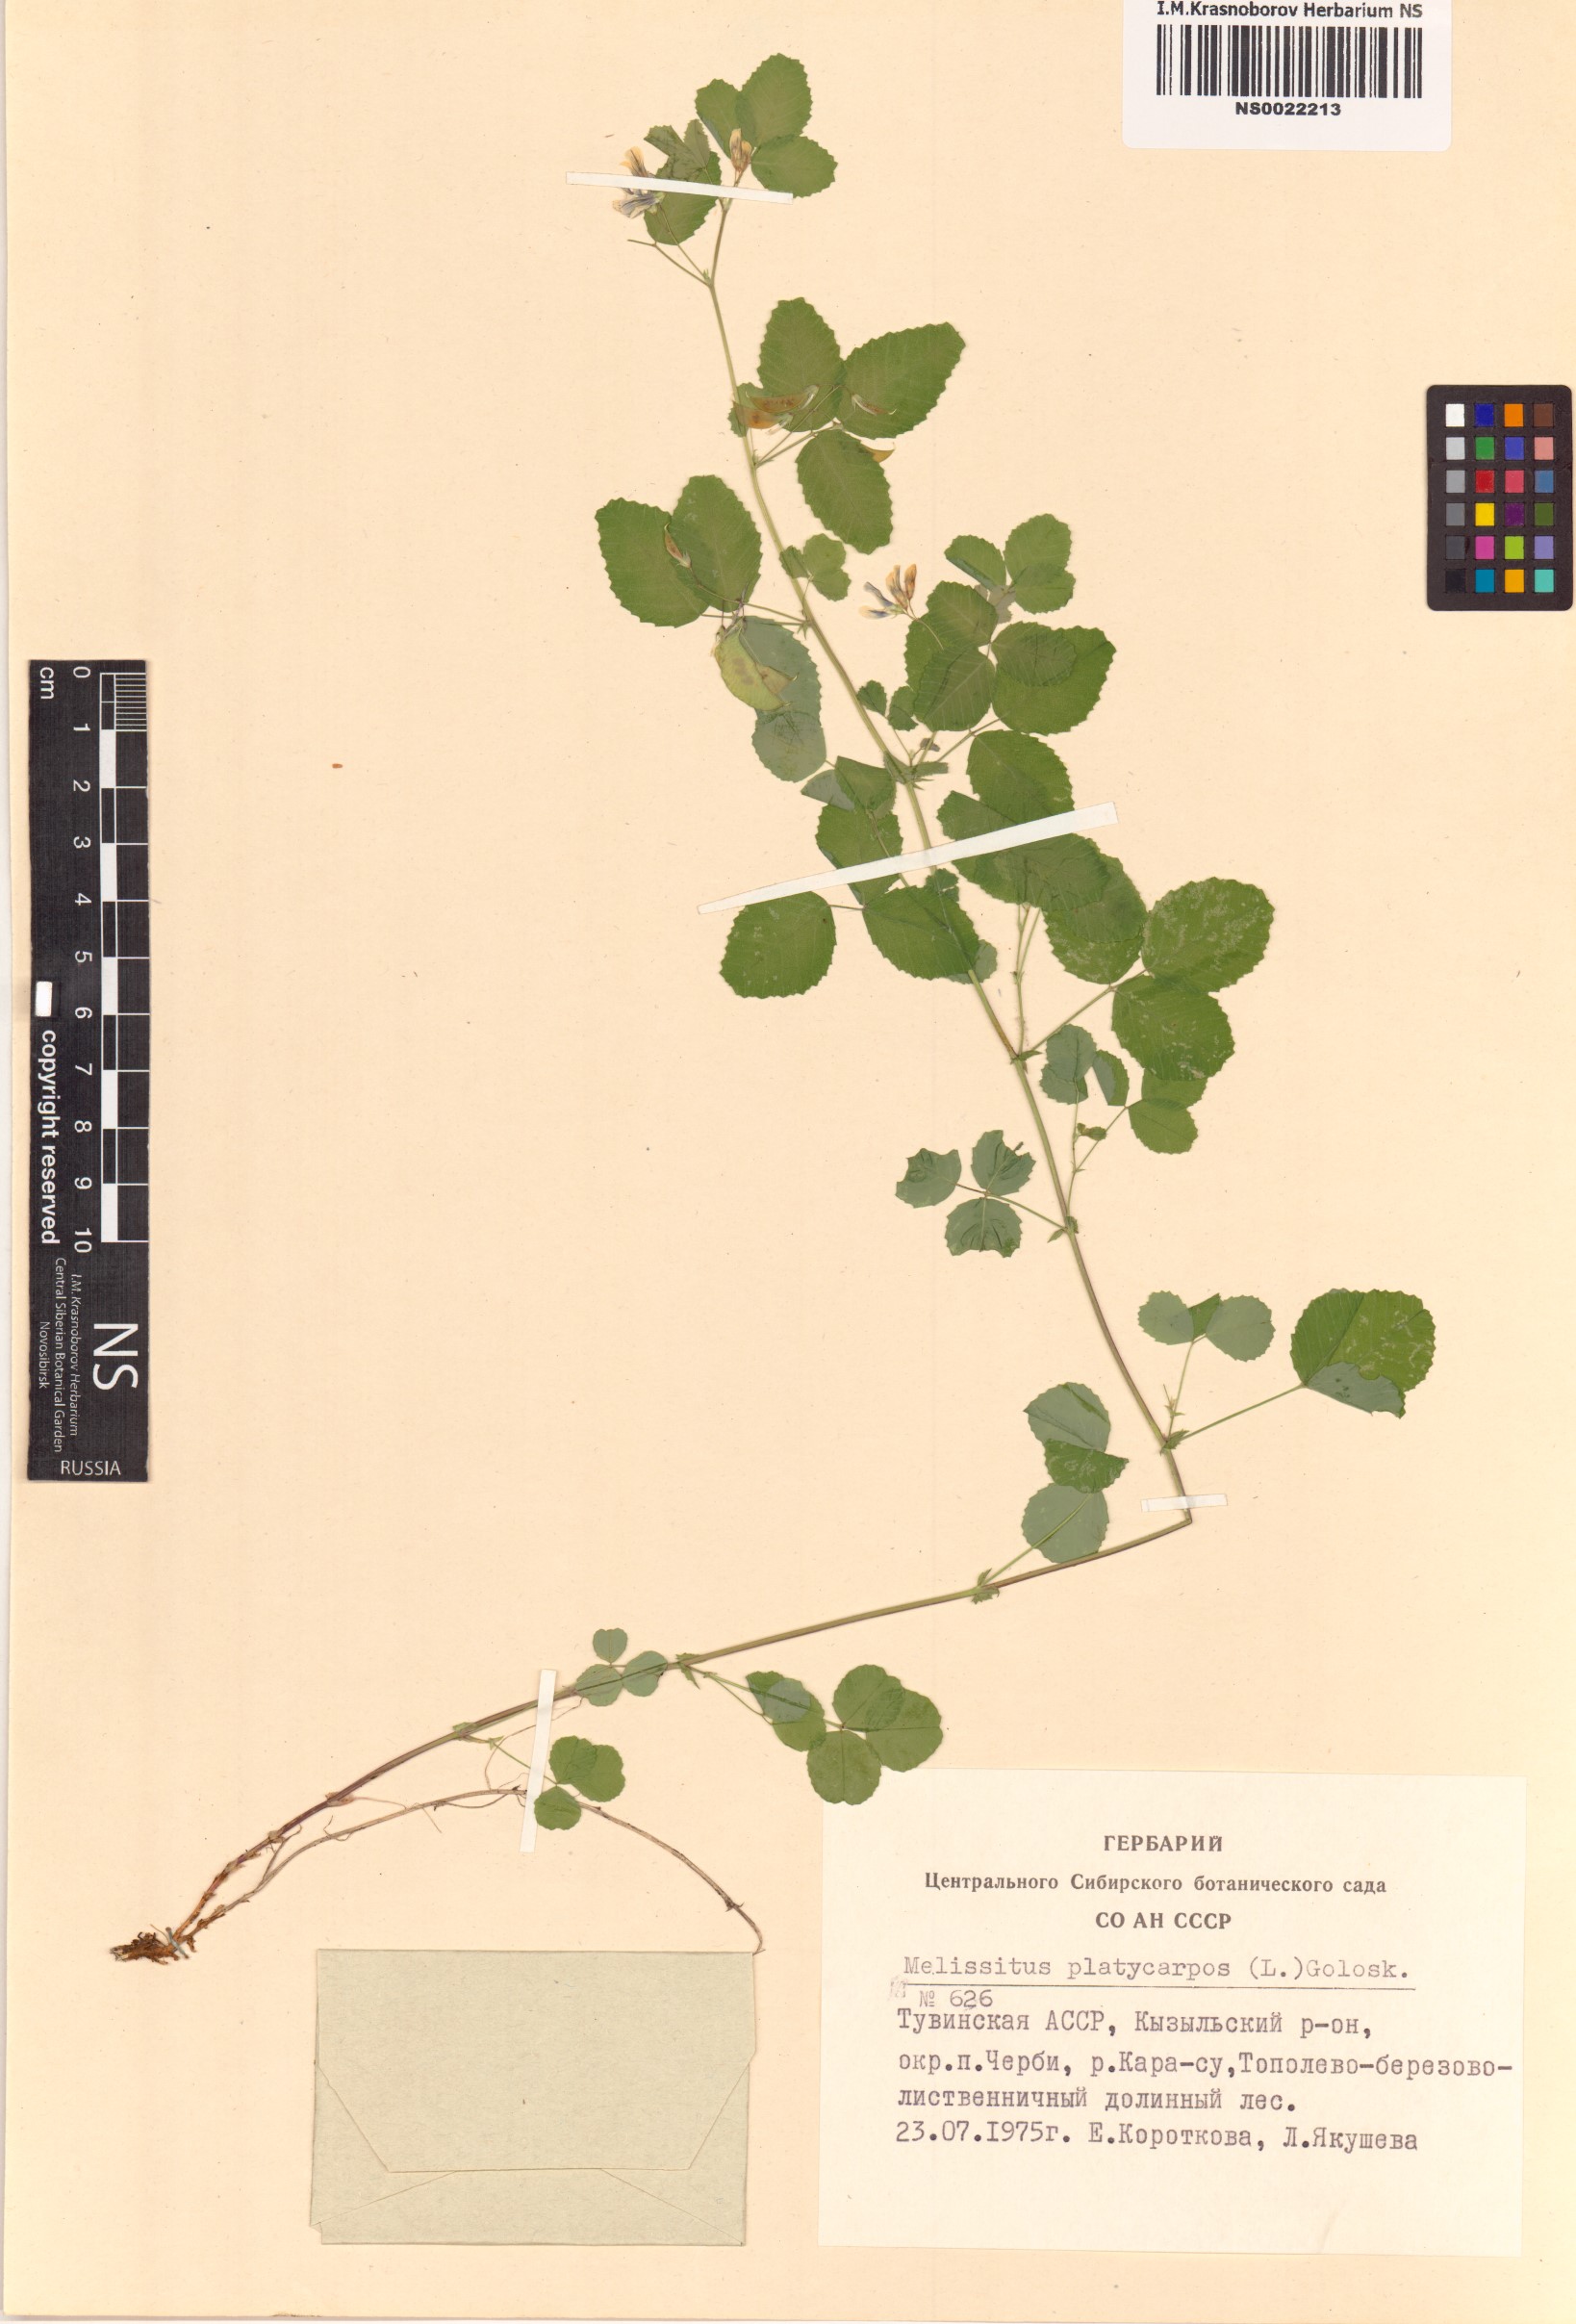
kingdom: Plantae
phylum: Tracheophyta
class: Magnoliopsida
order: Fabales
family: Fabaceae
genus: Medicago
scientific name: Medicago platycarpos
